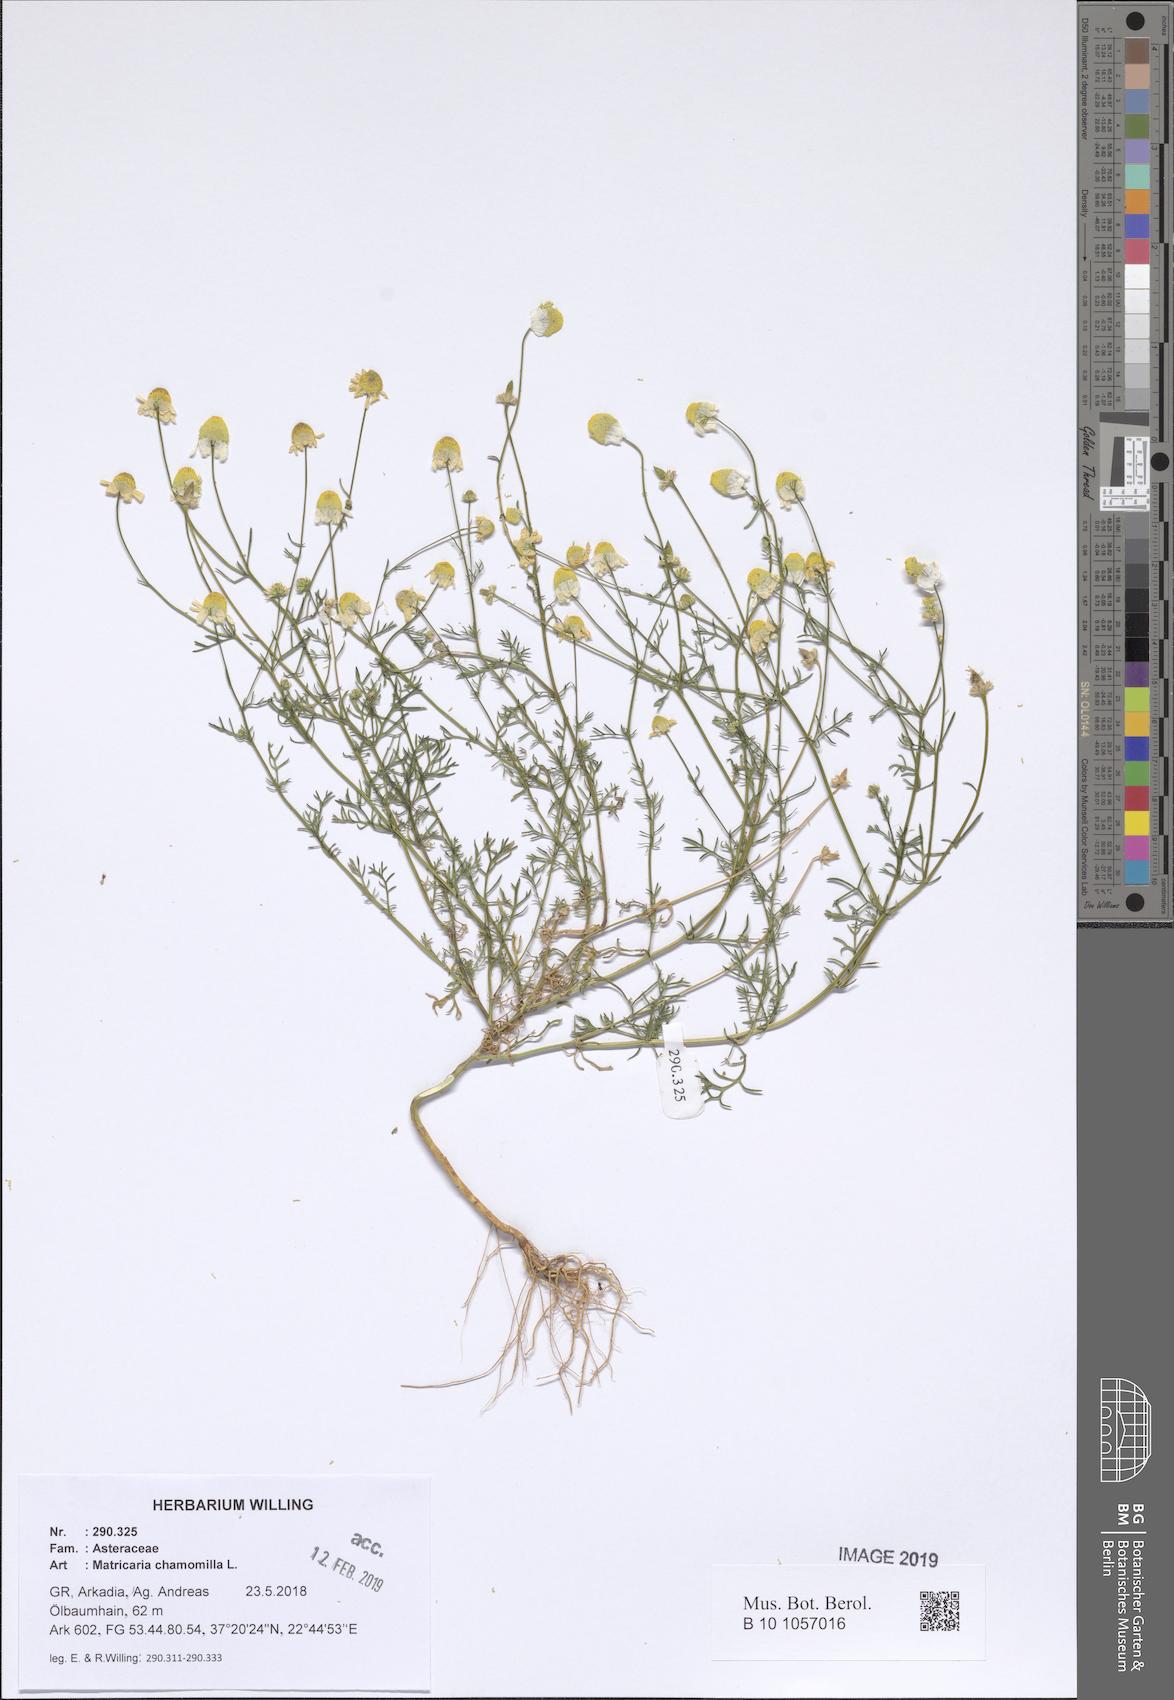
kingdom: Plantae
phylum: Tracheophyta
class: Magnoliopsida
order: Asterales
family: Asteraceae
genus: Matricaria
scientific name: Matricaria chamomilla
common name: Scented mayweed
